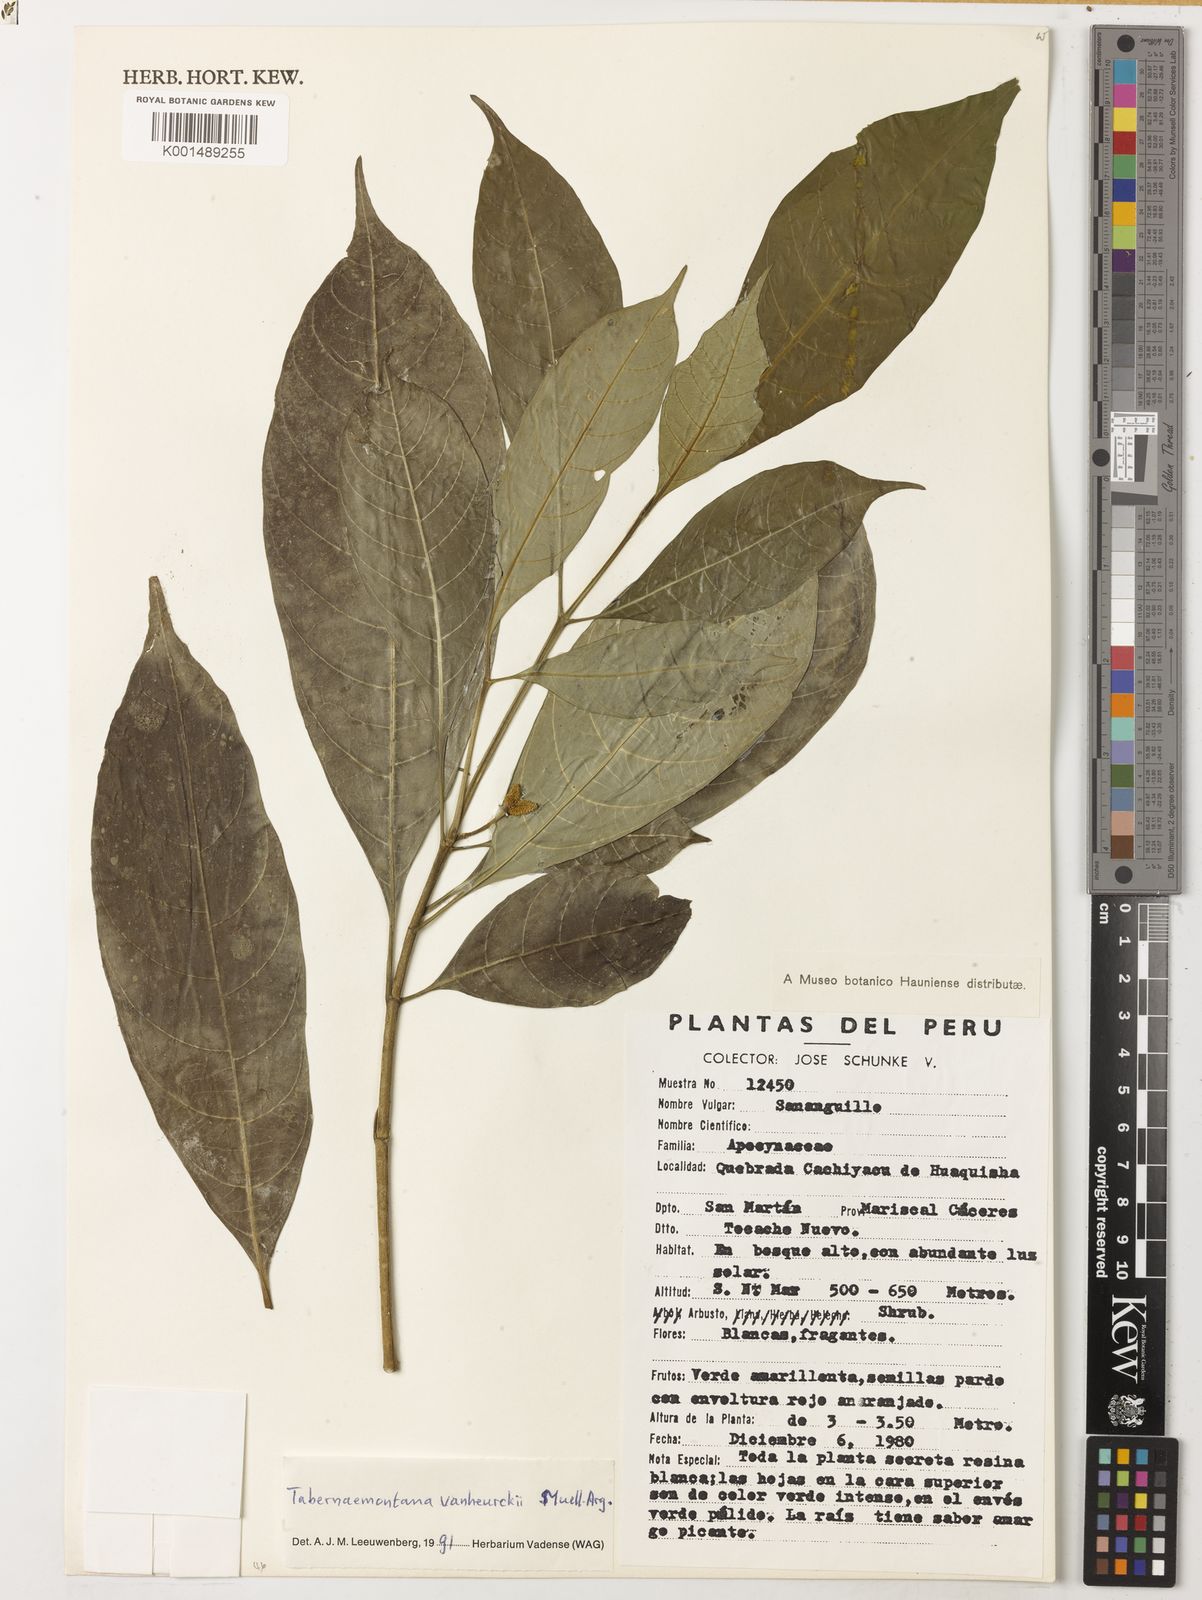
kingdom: Plantae
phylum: Tracheophyta
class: Magnoliopsida
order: Gentianales
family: Apocynaceae
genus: Tabernaemontana
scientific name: Tabernaemontana vanheurckii
